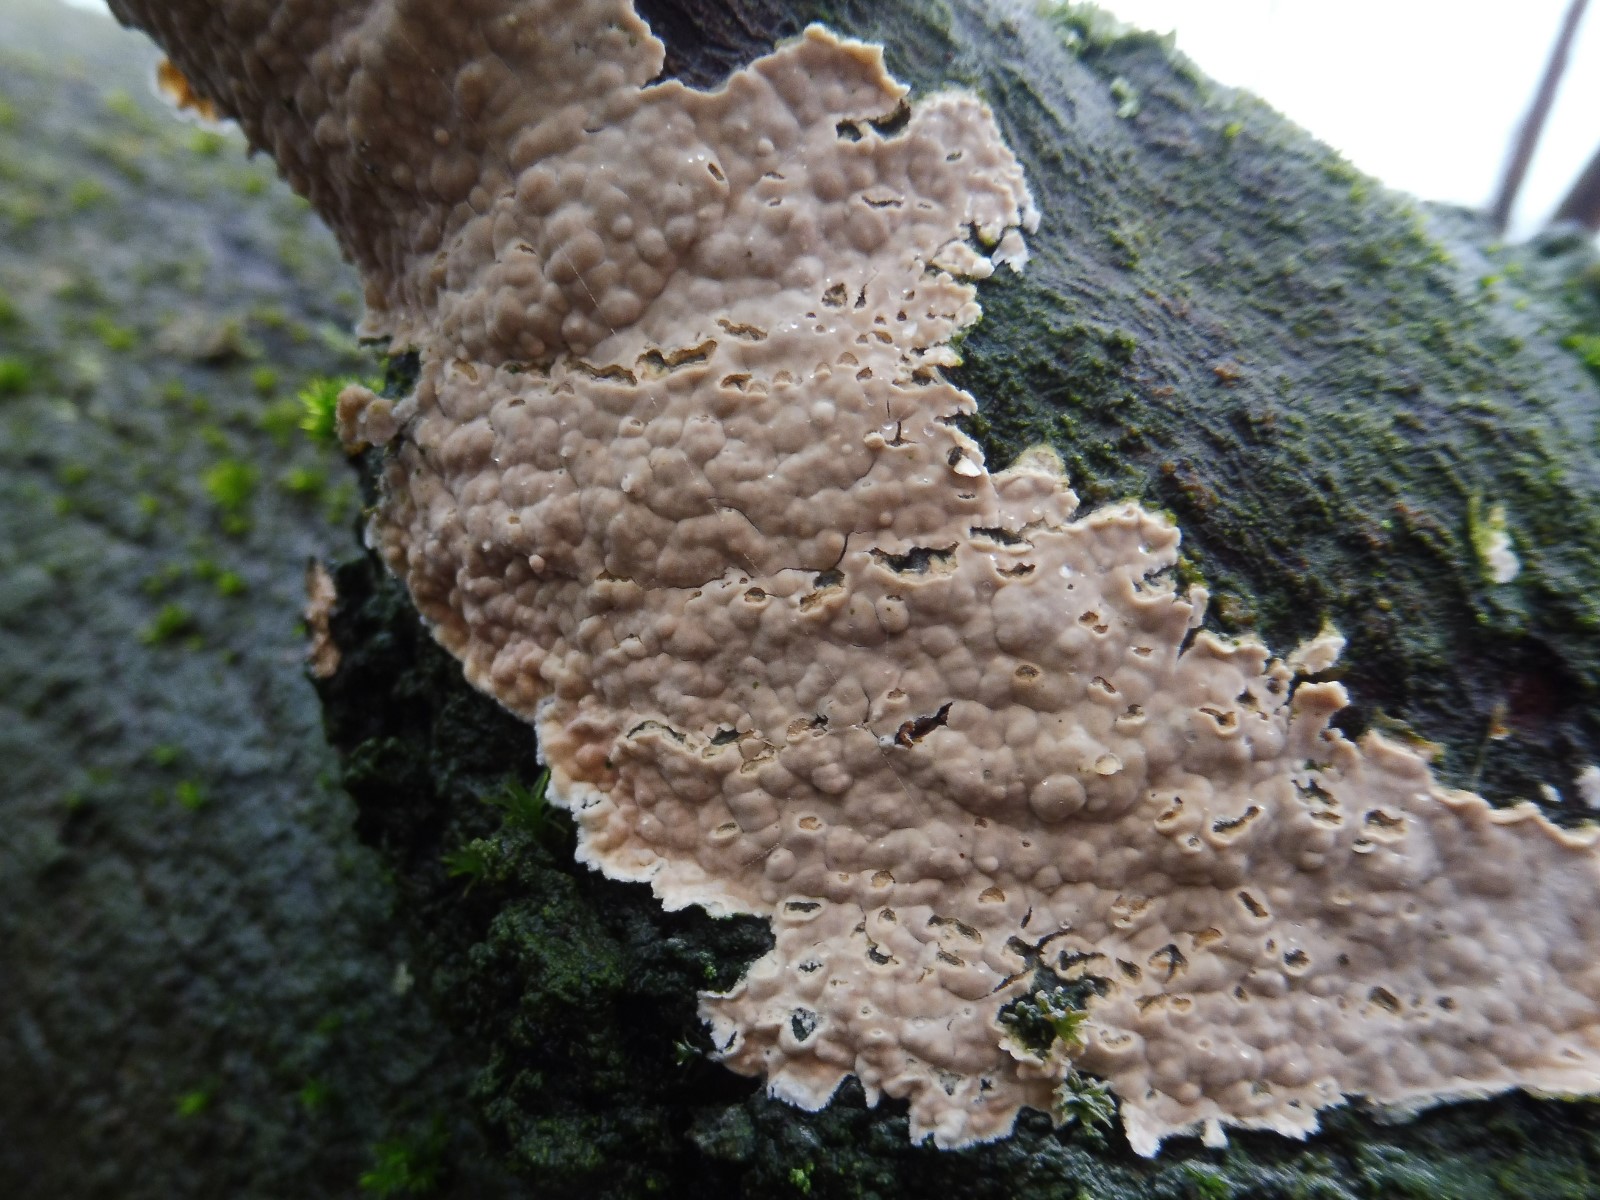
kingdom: Fungi
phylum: Basidiomycota
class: Agaricomycetes
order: Agaricales
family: Physalacriaceae
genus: Cylindrobasidium
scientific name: Cylindrobasidium evolvens
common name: sprækkehinde
